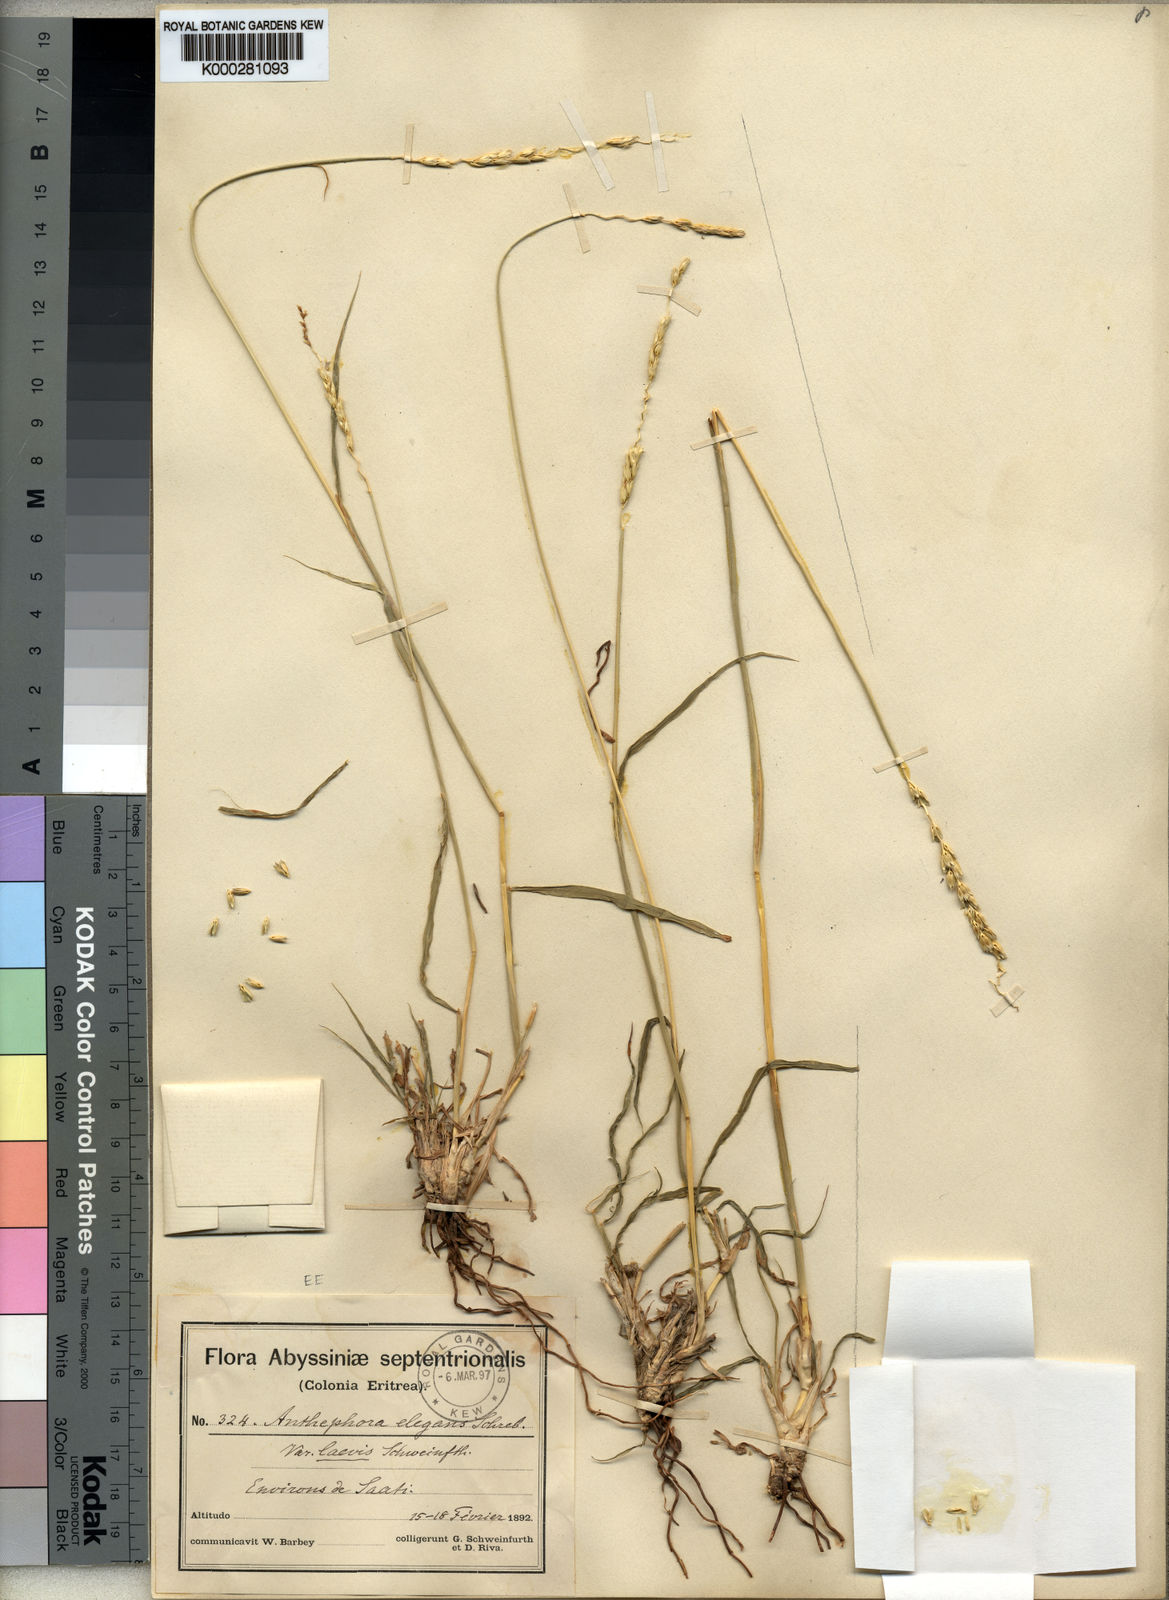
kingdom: Plantae
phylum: Tracheophyta
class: Liliopsida
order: Poales
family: Poaceae
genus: Anthephora
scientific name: Anthephora laevis
